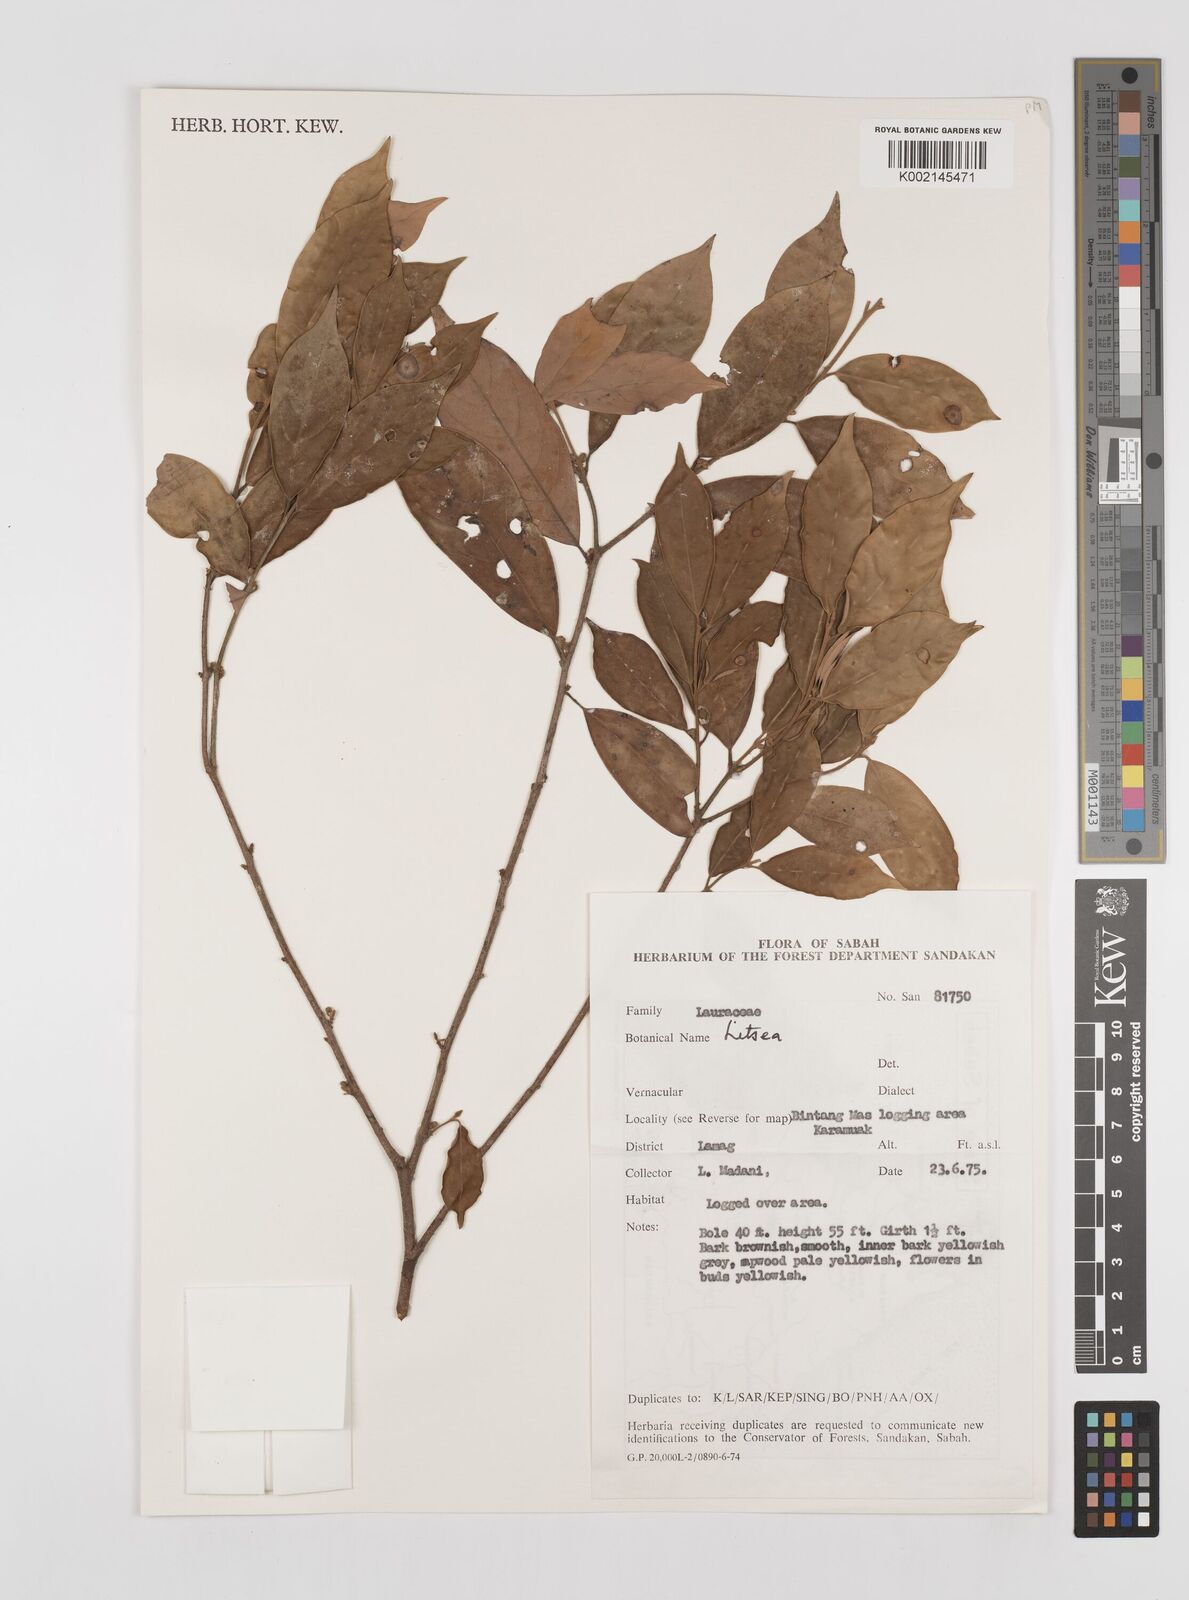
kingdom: Plantae
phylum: Tracheophyta
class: Magnoliopsida
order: Laurales
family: Lauraceae
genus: Litsea
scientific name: Litsea
